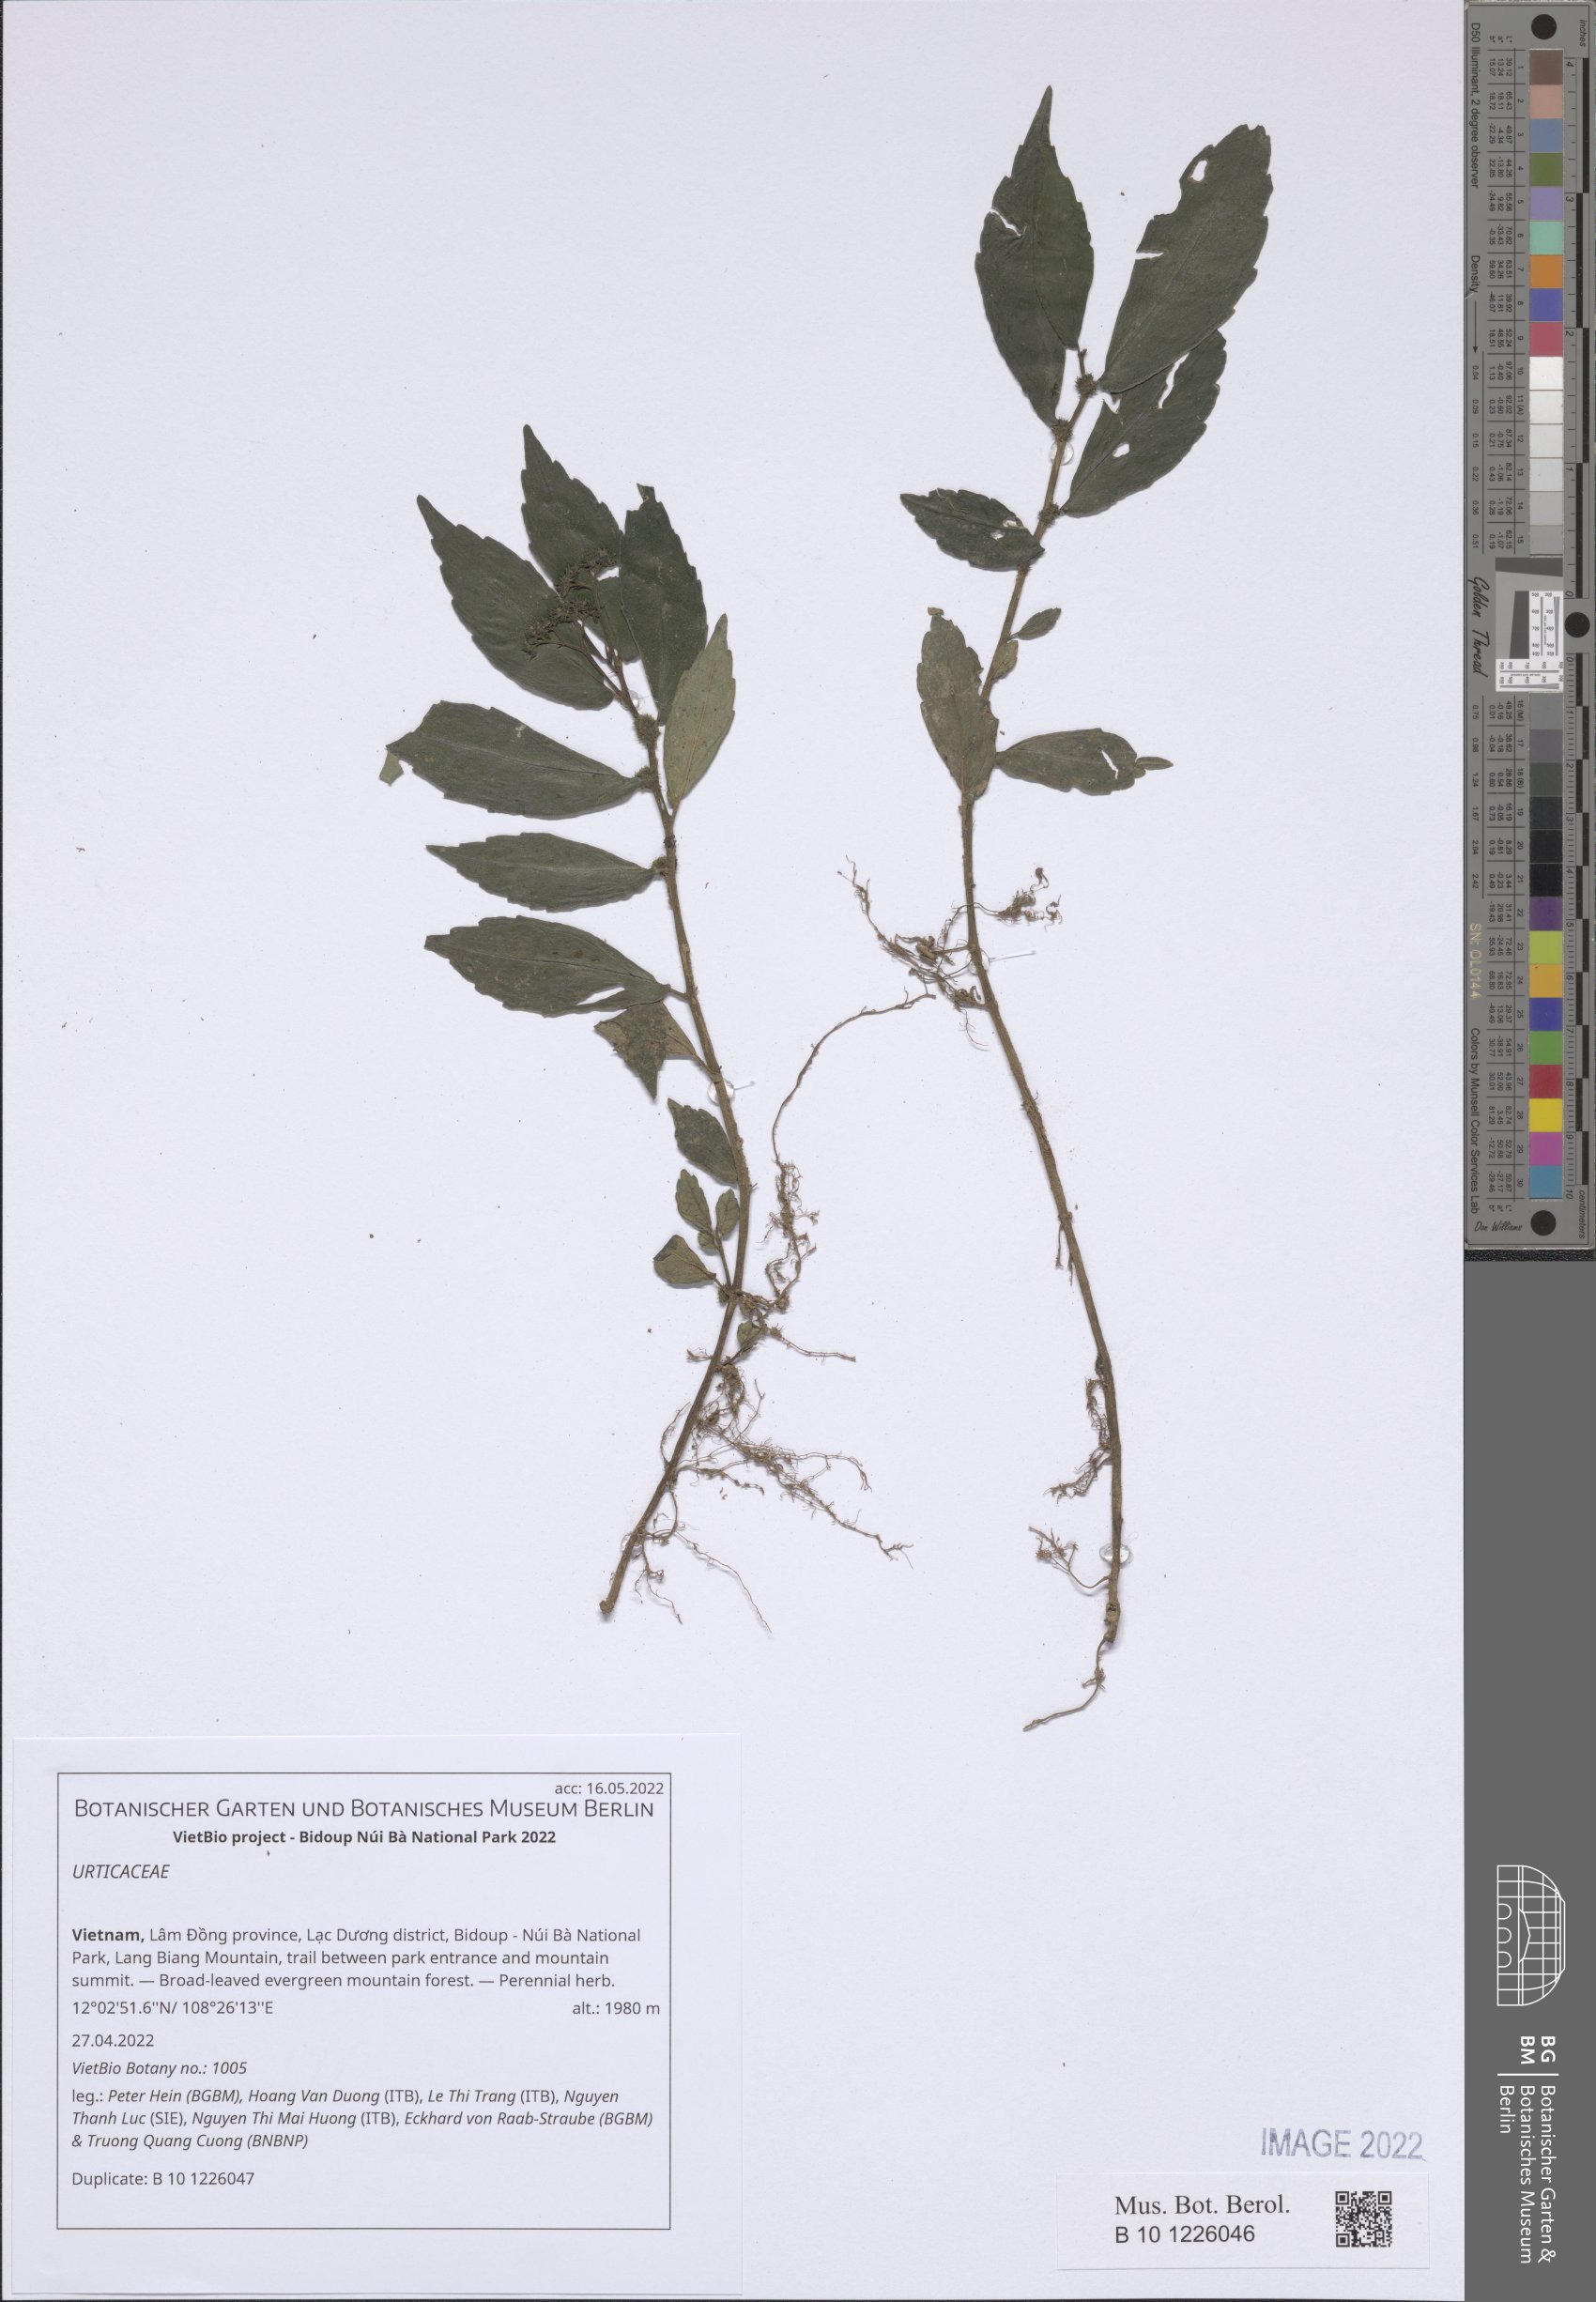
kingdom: Plantae
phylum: Tracheophyta
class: Magnoliopsida
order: Rosales
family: Urticaceae
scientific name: Urticaceae
